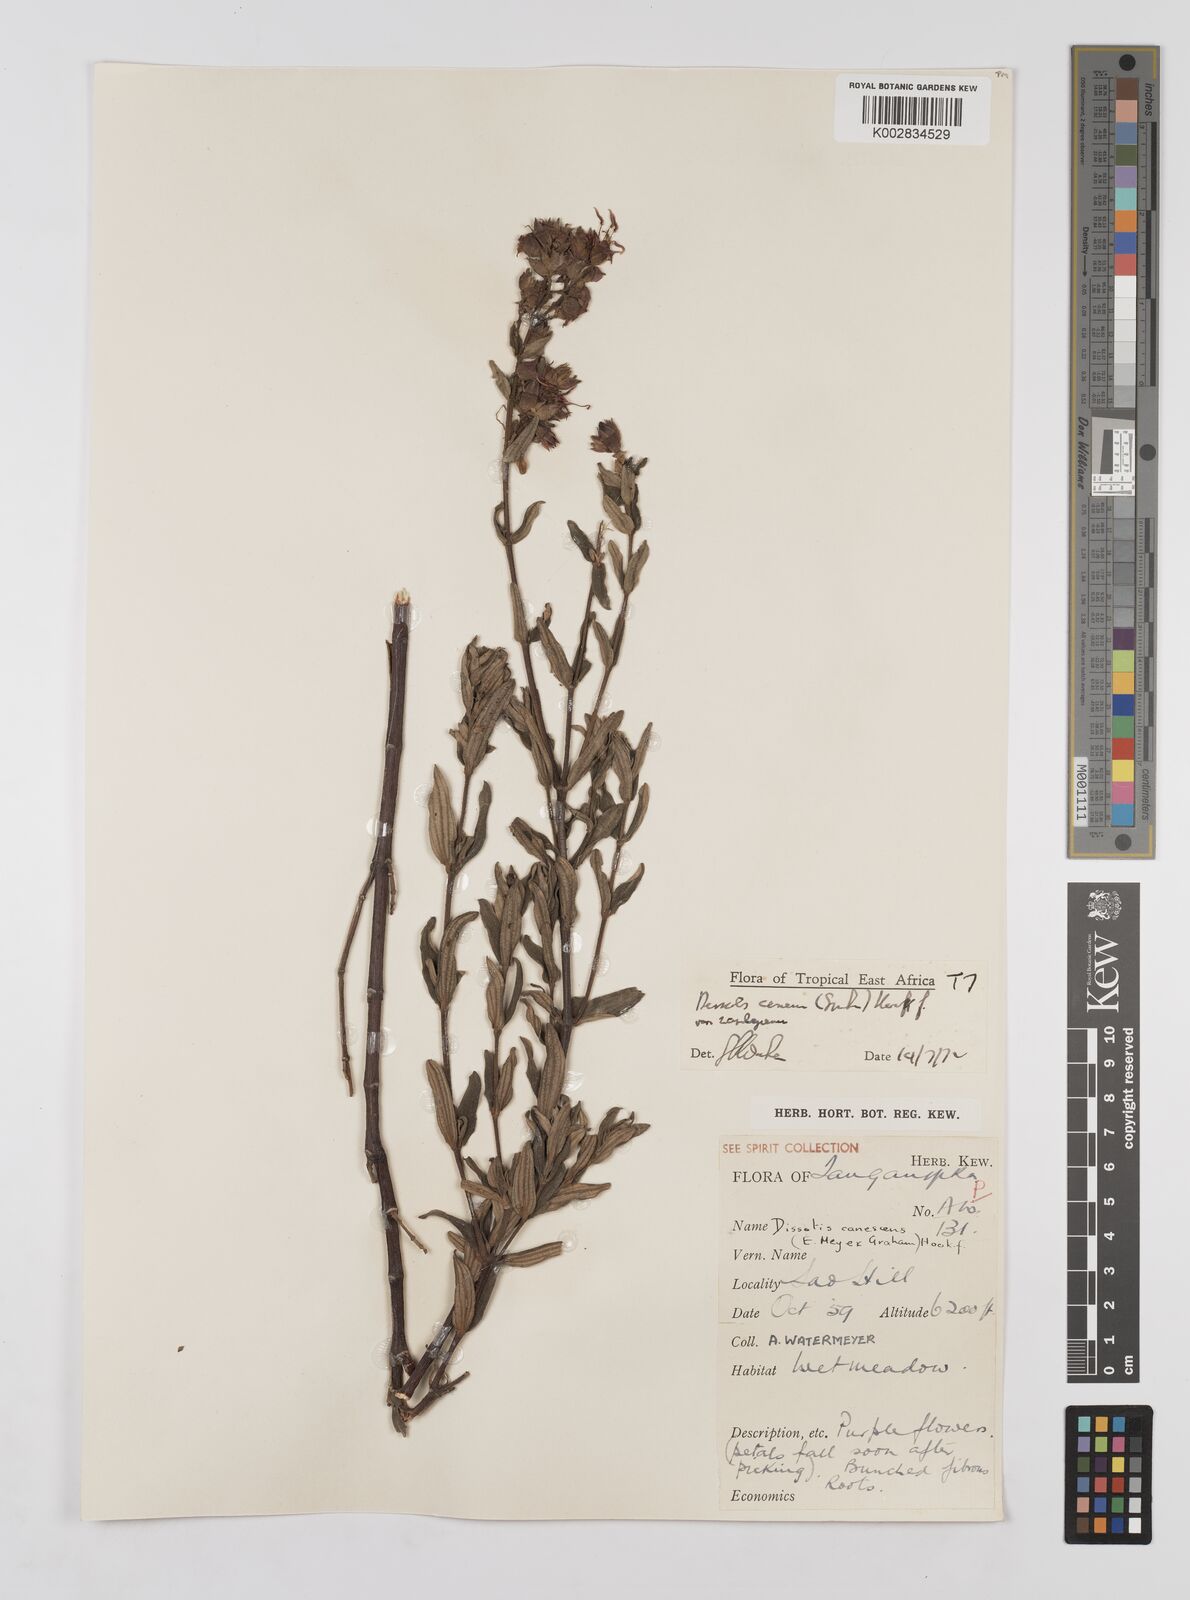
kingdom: Plantae
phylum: Tracheophyta
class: Magnoliopsida
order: Myrtales
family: Melastomataceae
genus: Argyrella
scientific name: Argyrella canescens
